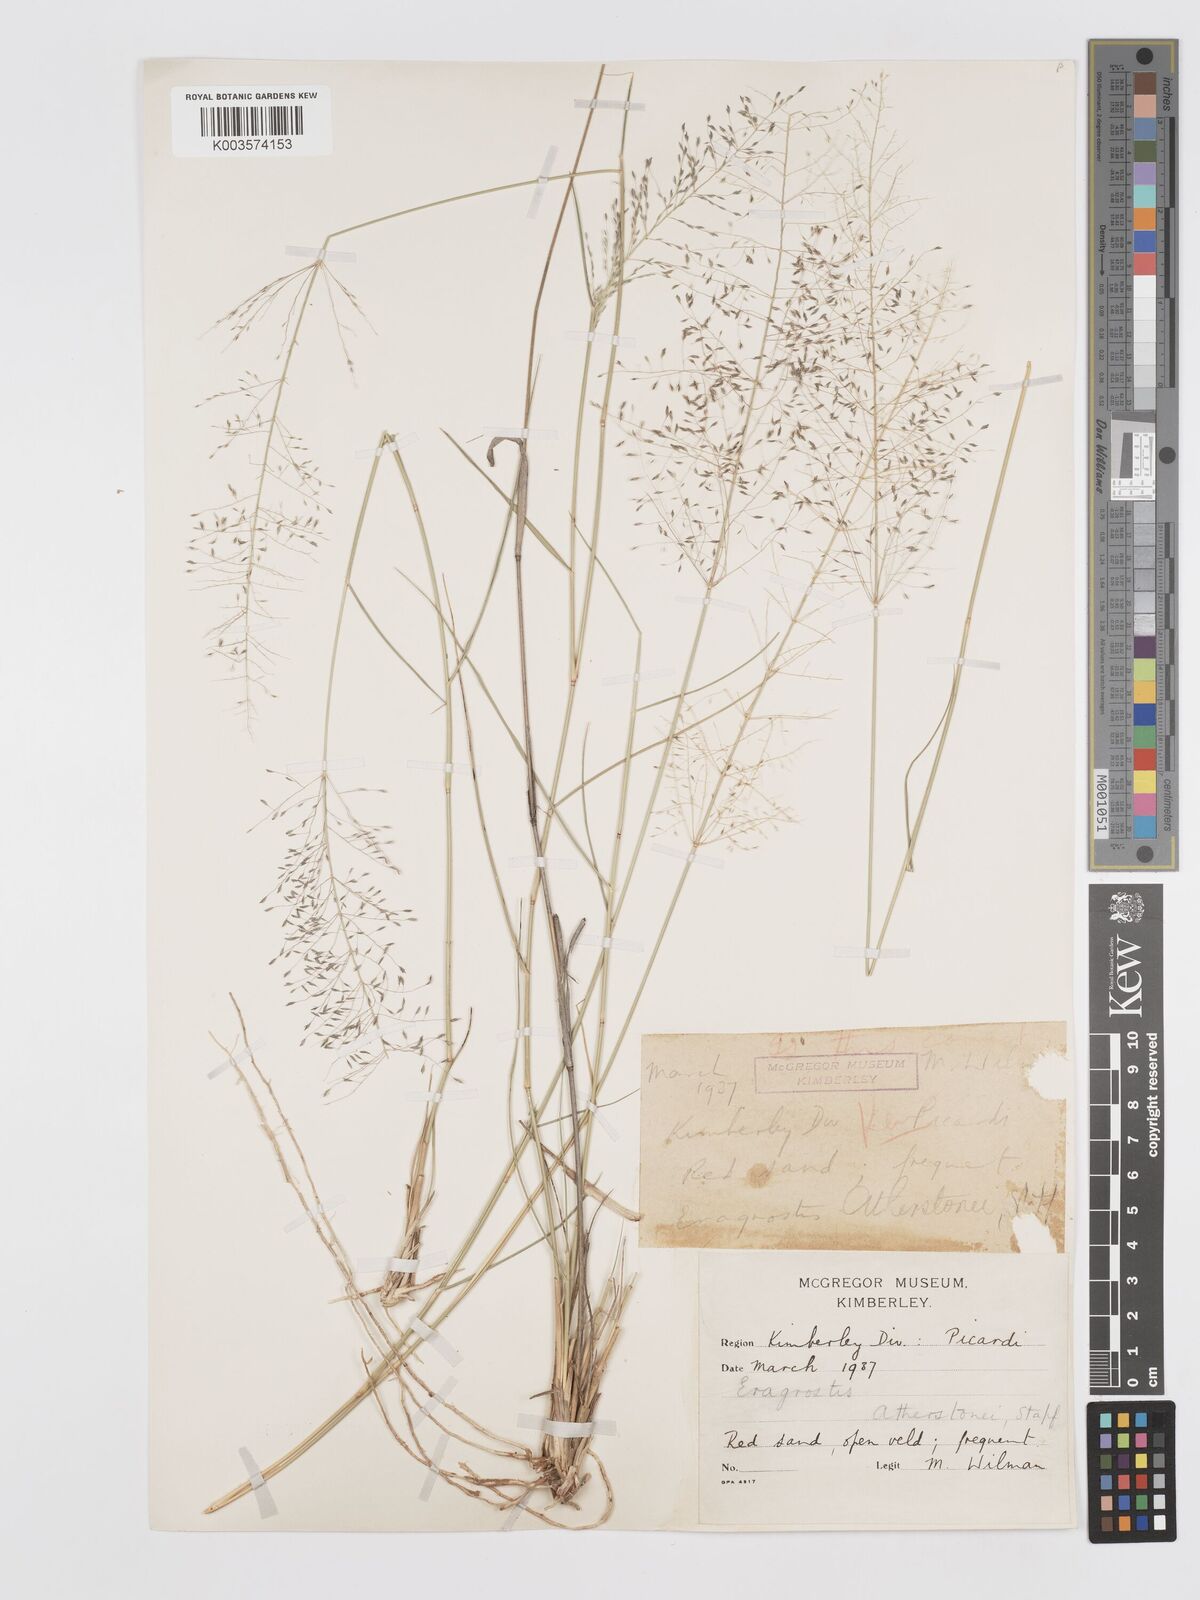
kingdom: Plantae
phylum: Tracheophyta
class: Liliopsida
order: Poales
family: Poaceae
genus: Eragrostis
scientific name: Eragrostis cylindriflora
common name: Cylinderflower lovegrass
